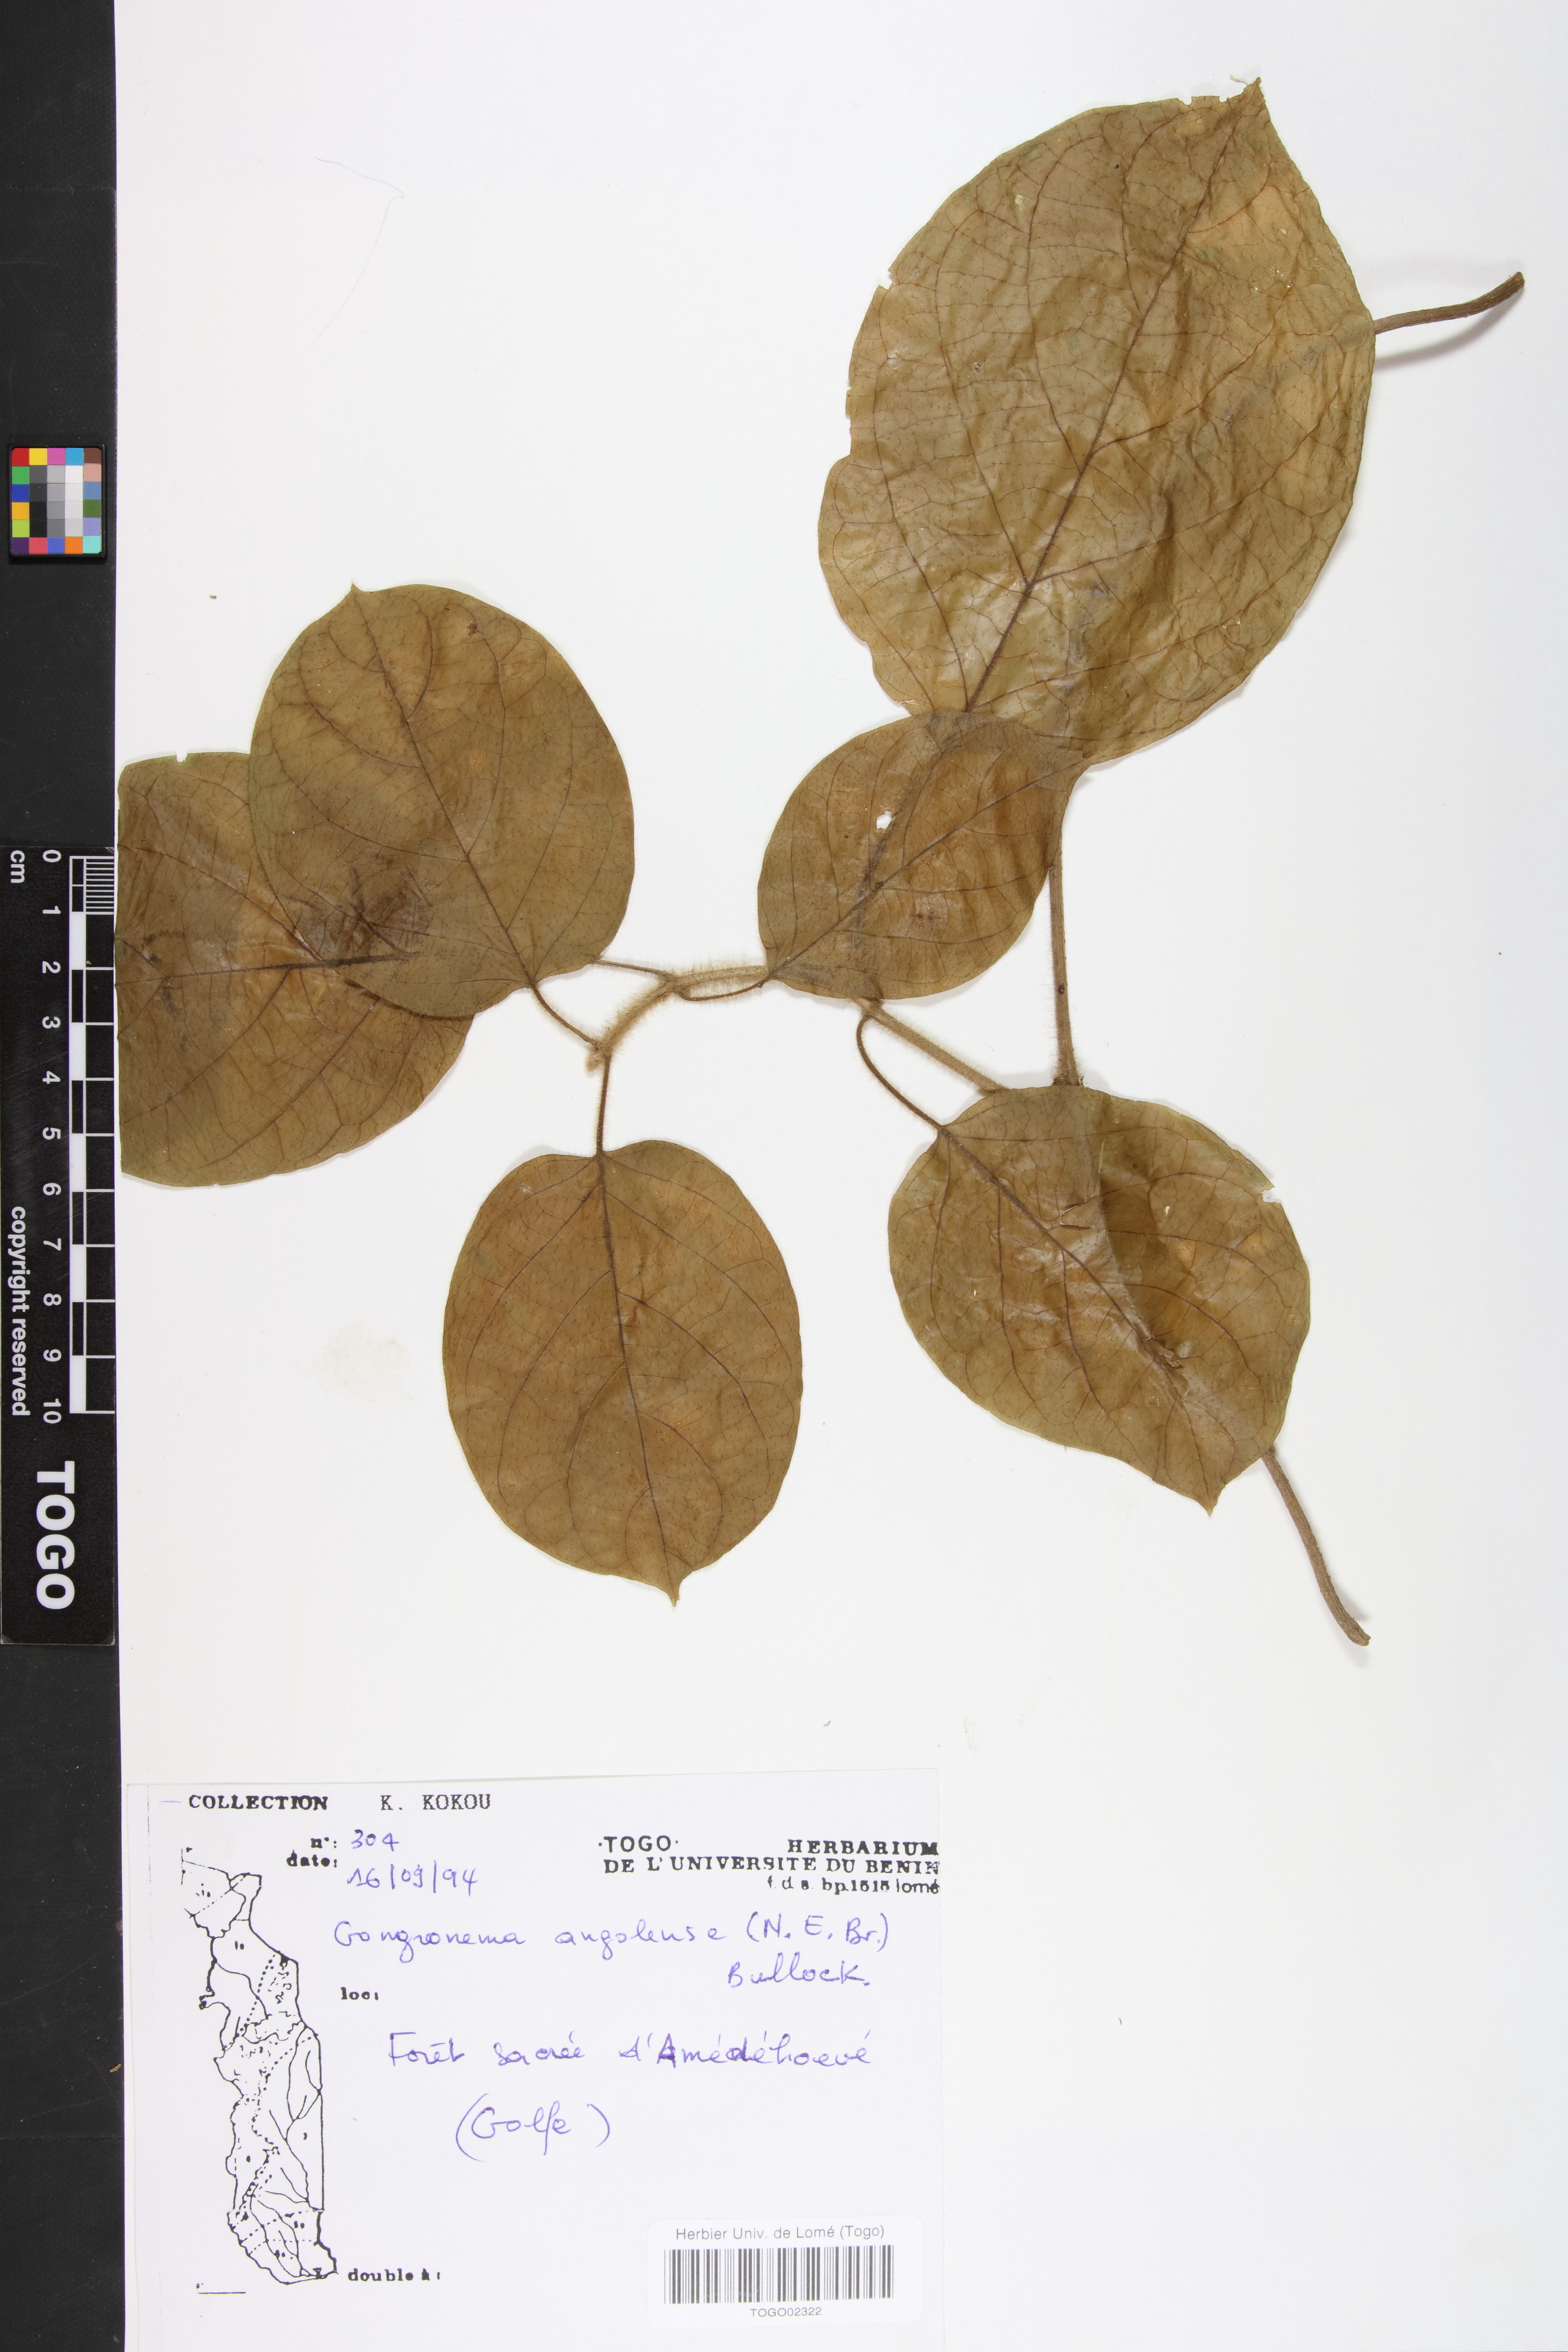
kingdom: Plantae
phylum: Tracheophyta
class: Magnoliopsida
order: Gentianales
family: Apocynaceae
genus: Gongronemopsis
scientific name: Gongronemopsis angolensis
